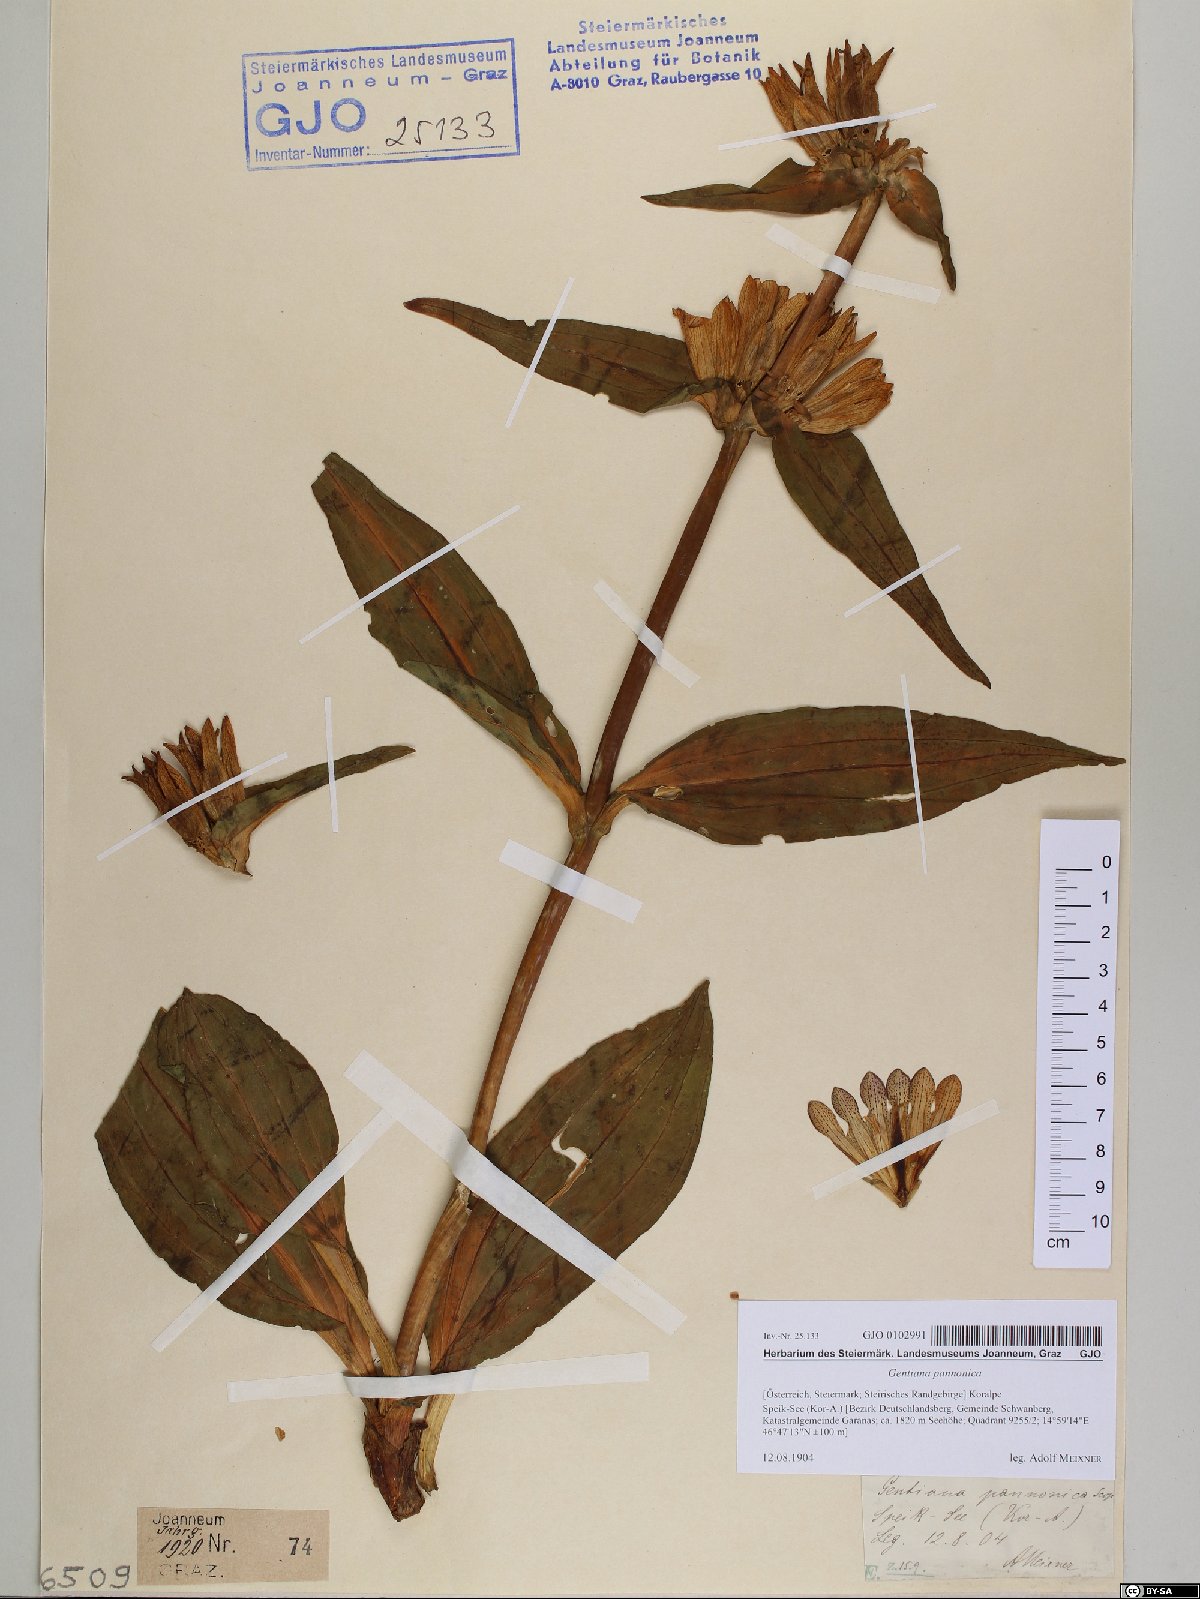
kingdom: Plantae
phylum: Tracheophyta
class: Magnoliopsida
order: Gentianales
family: Gentianaceae
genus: Gentiana
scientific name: Gentiana pannonica
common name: Hungarian gentian
